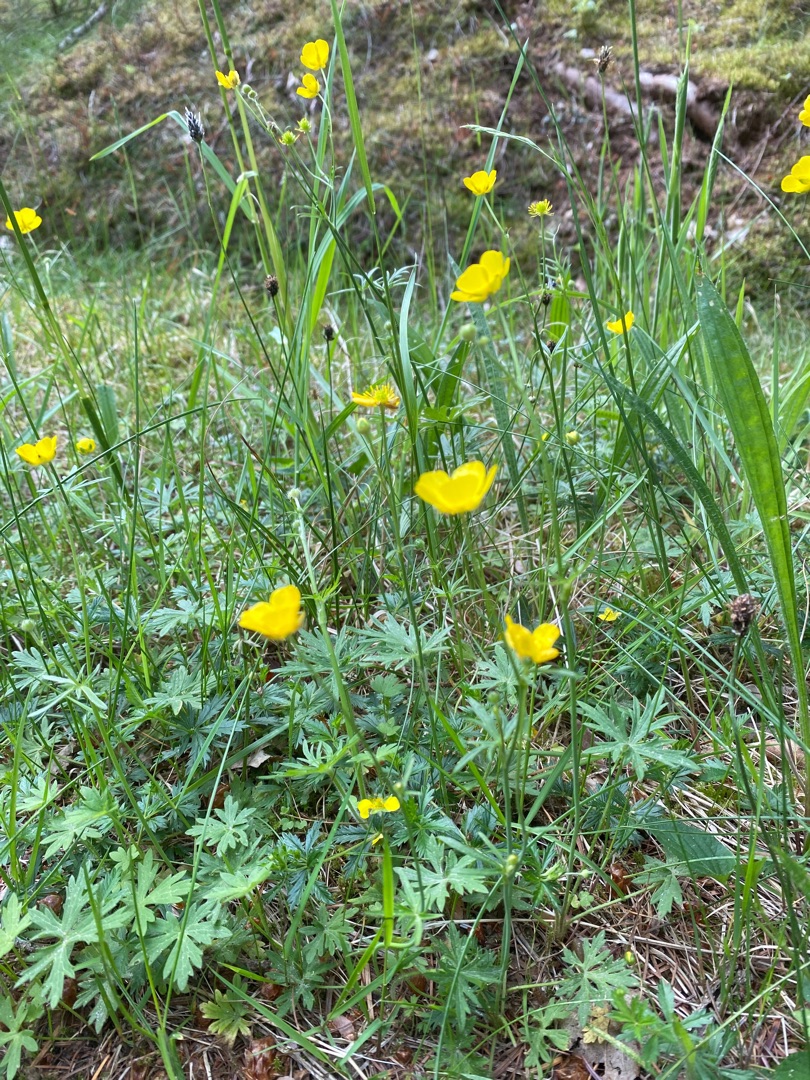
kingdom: Plantae
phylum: Tracheophyta
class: Magnoliopsida
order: Ranunculales
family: Ranunculaceae
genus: Ranunculus
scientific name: Ranunculus acris
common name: Bidende ranunkel
